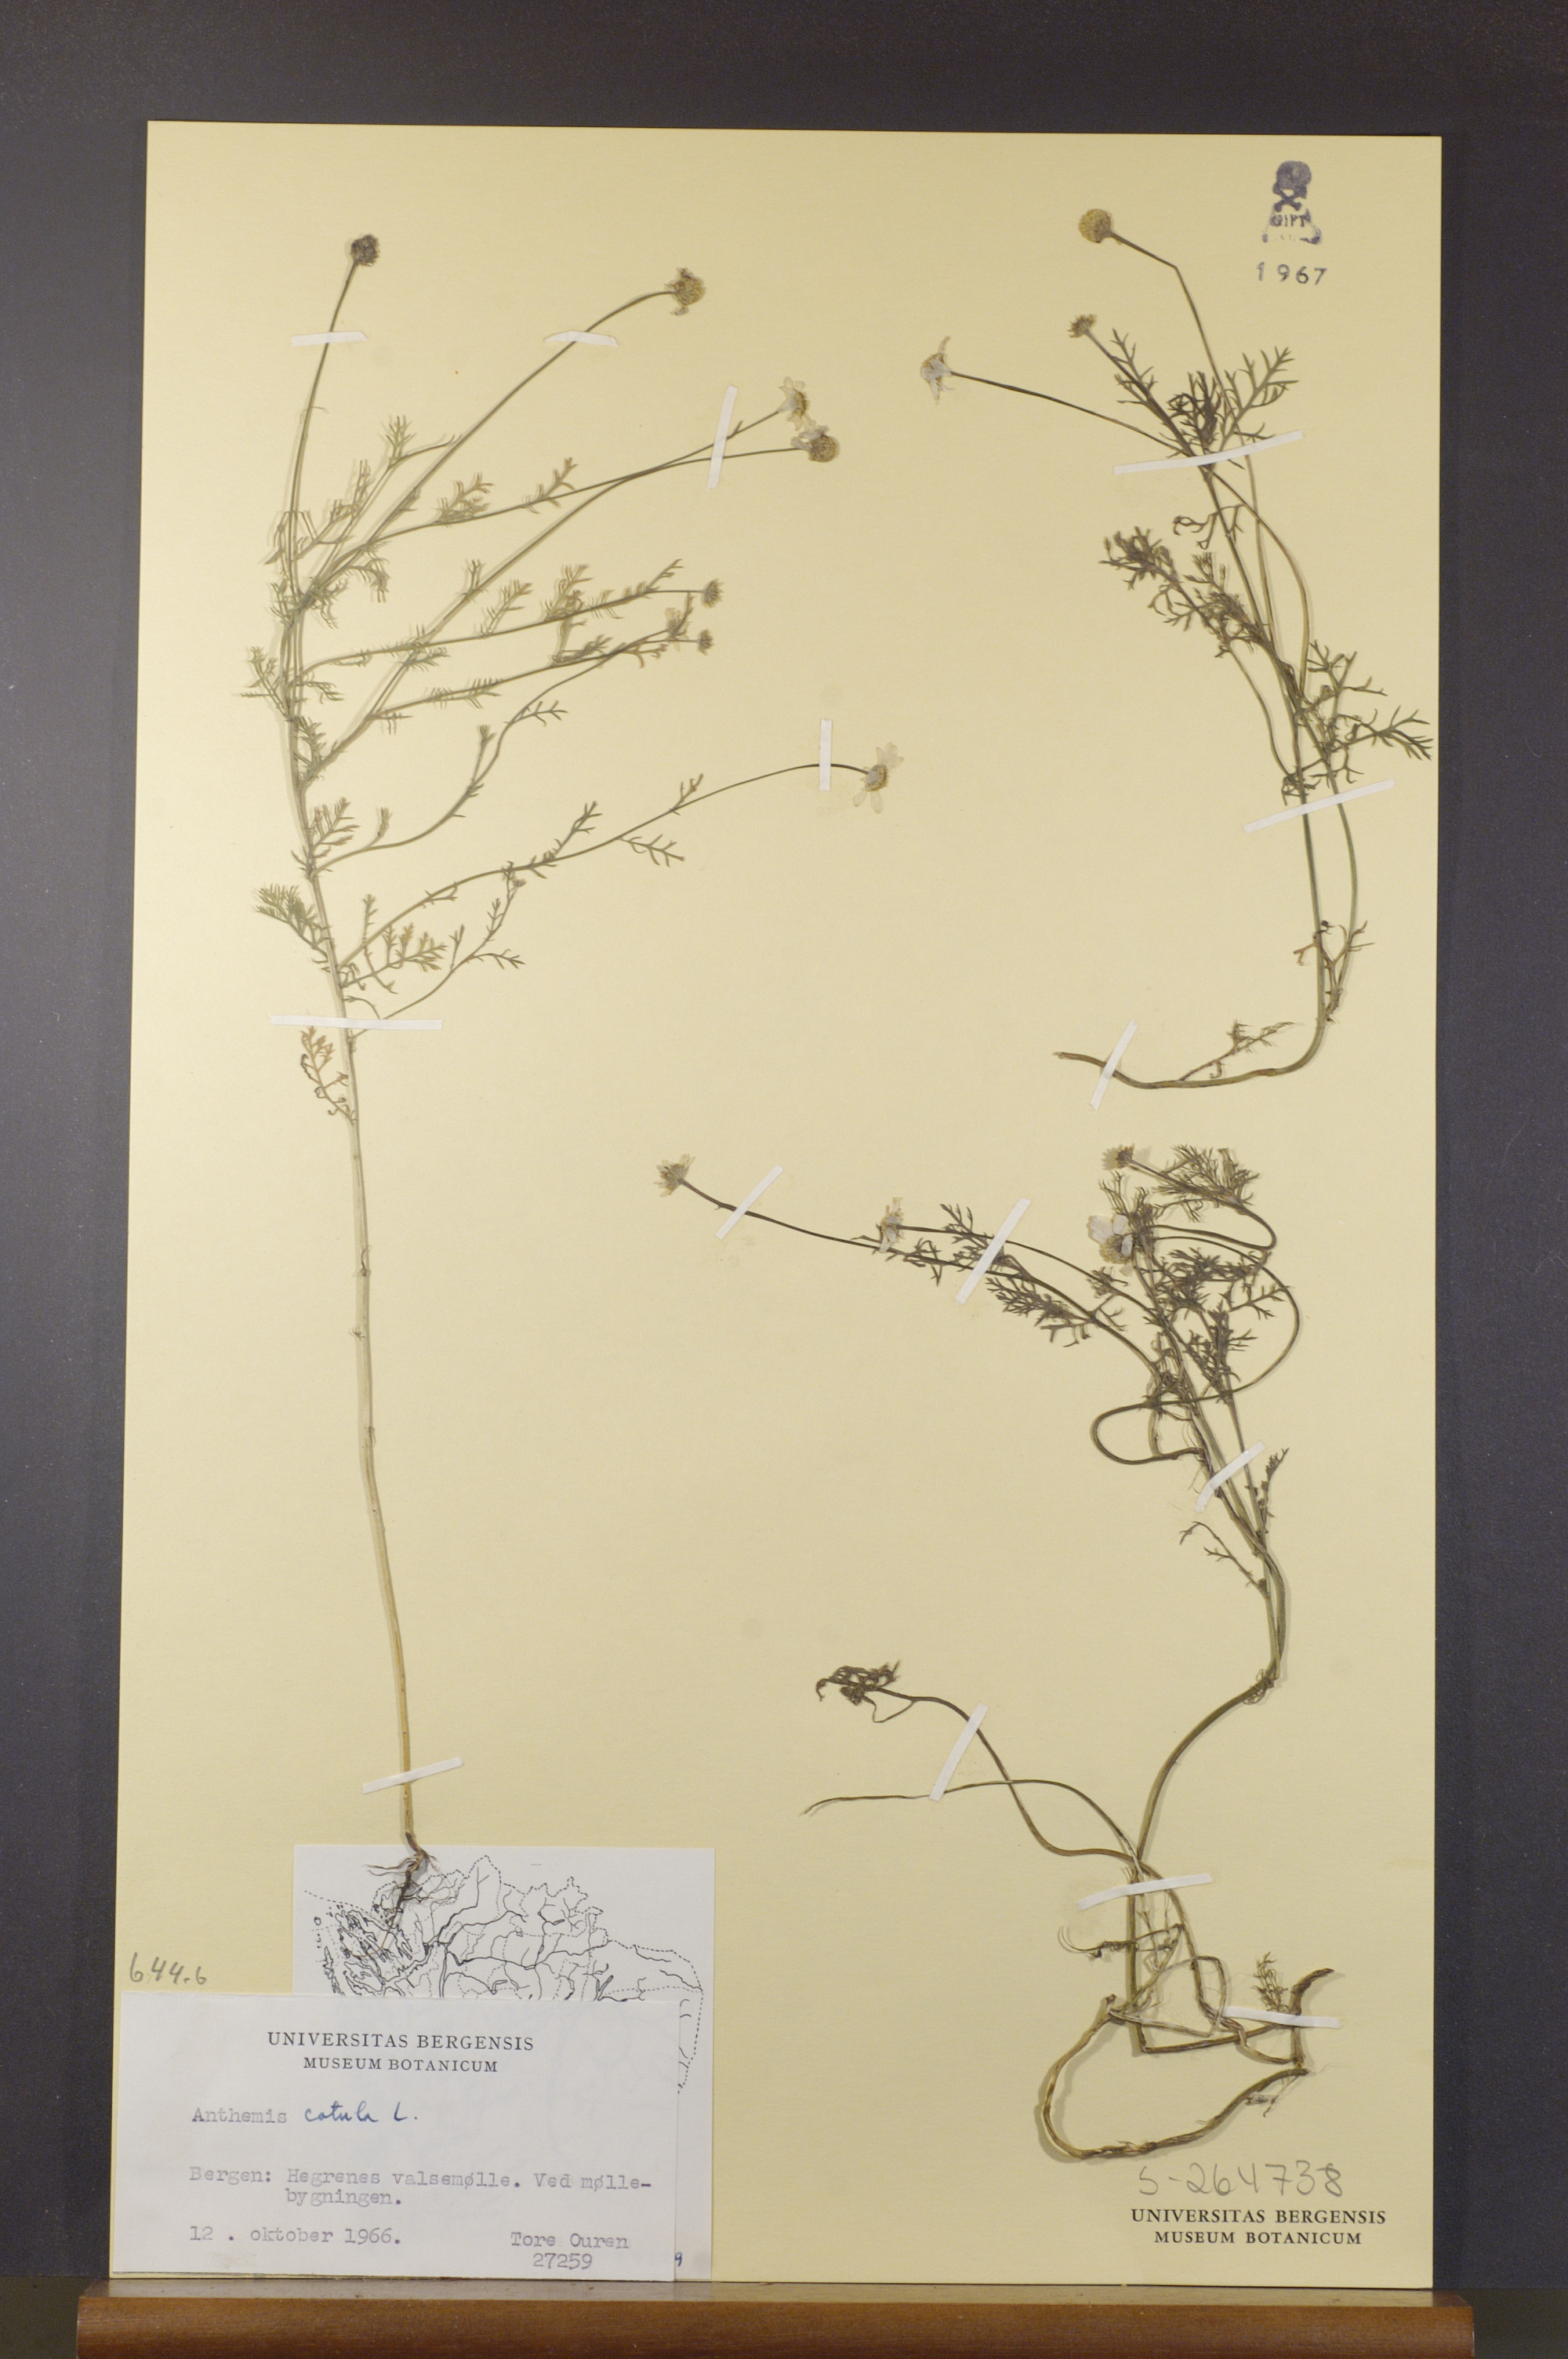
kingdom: Plantae
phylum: Tracheophyta
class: Magnoliopsida
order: Asterales
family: Asteraceae
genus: Anthemis
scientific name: Anthemis cotula
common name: Stinking chamomile
